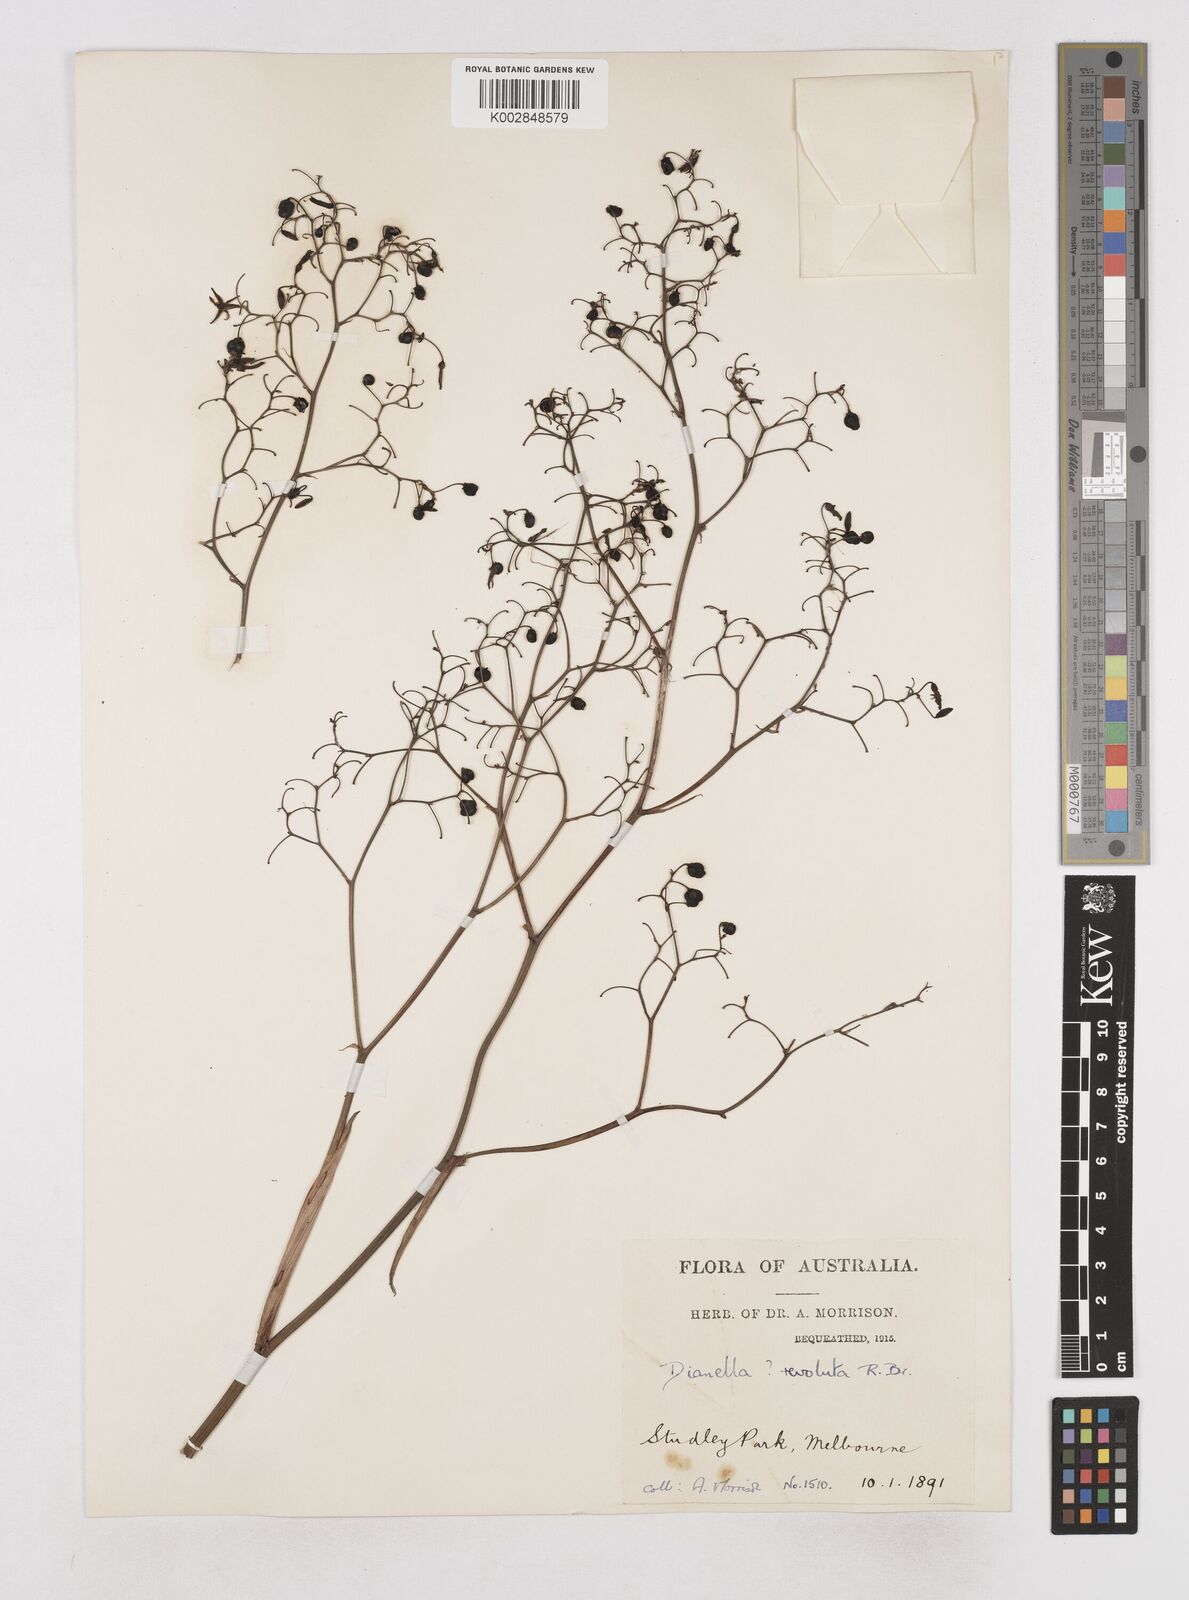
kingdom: Plantae
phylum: Tracheophyta
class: Liliopsida
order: Asparagales
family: Asphodelaceae
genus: Dianella
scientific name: Dianella revoluta
